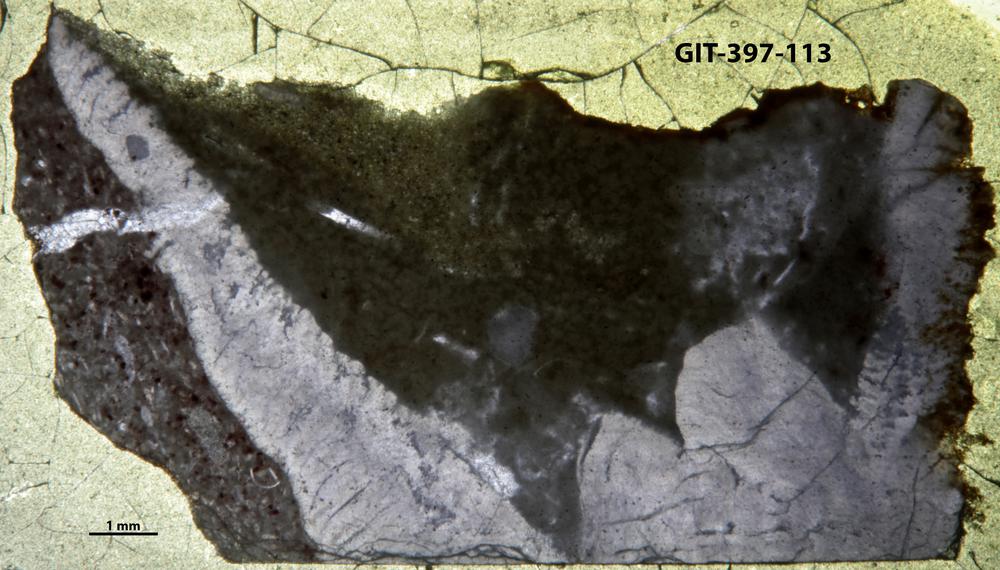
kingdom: Animalia
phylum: Cnidaria
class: Anthozoa
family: Lykophyllidae
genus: Pycnactis
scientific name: Pycnactis
